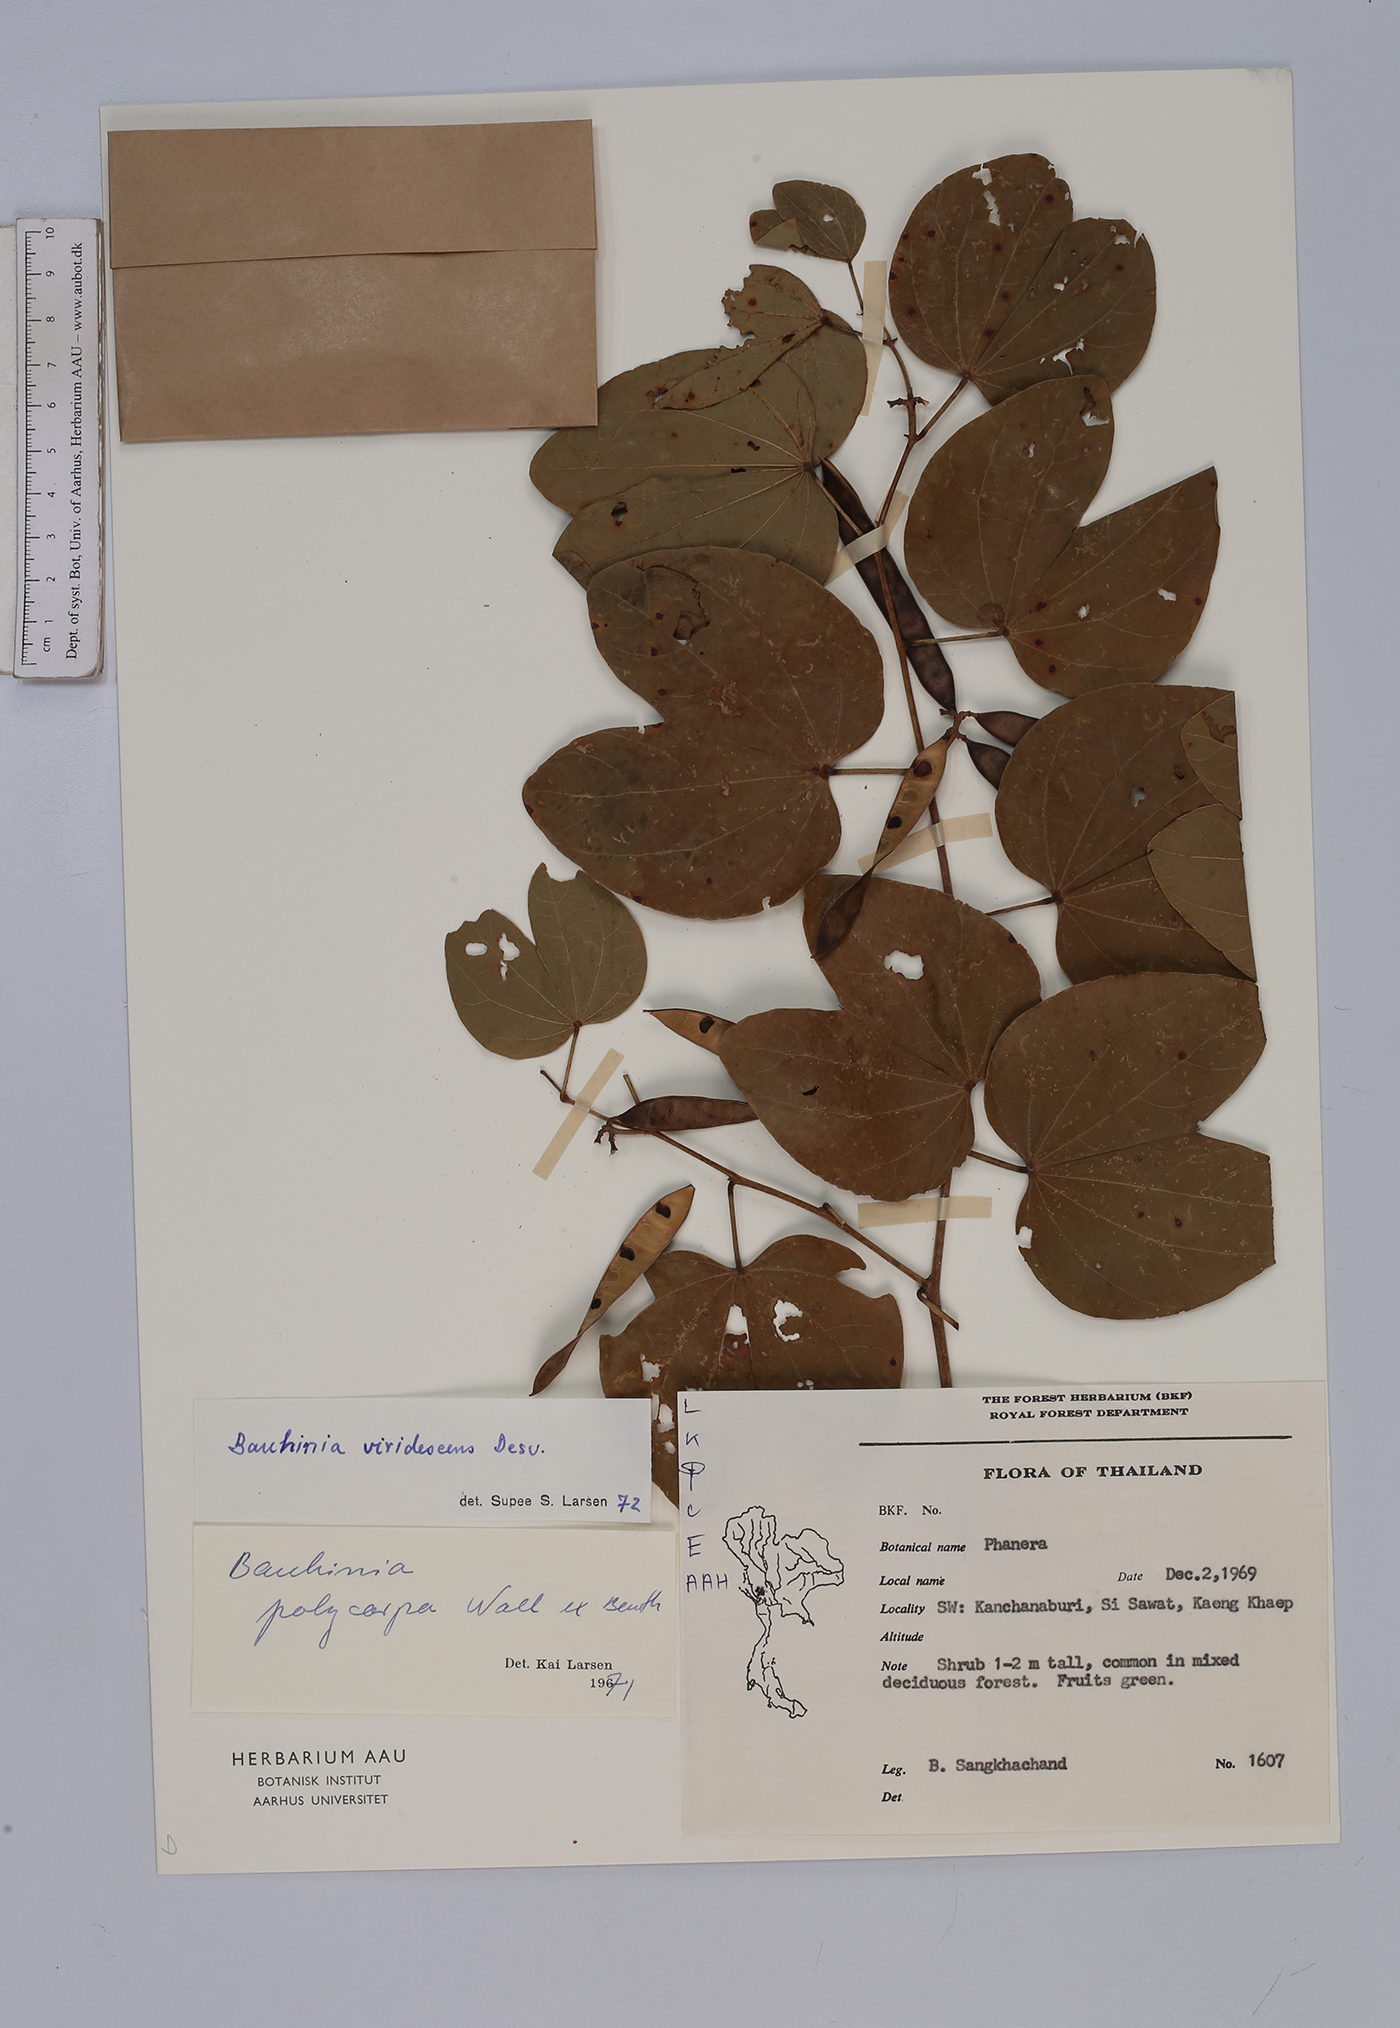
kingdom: Plantae
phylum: Tracheophyta
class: Magnoliopsida
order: Fabales
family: Fabaceae
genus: Bauhinia
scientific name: Bauhinia viridescens
